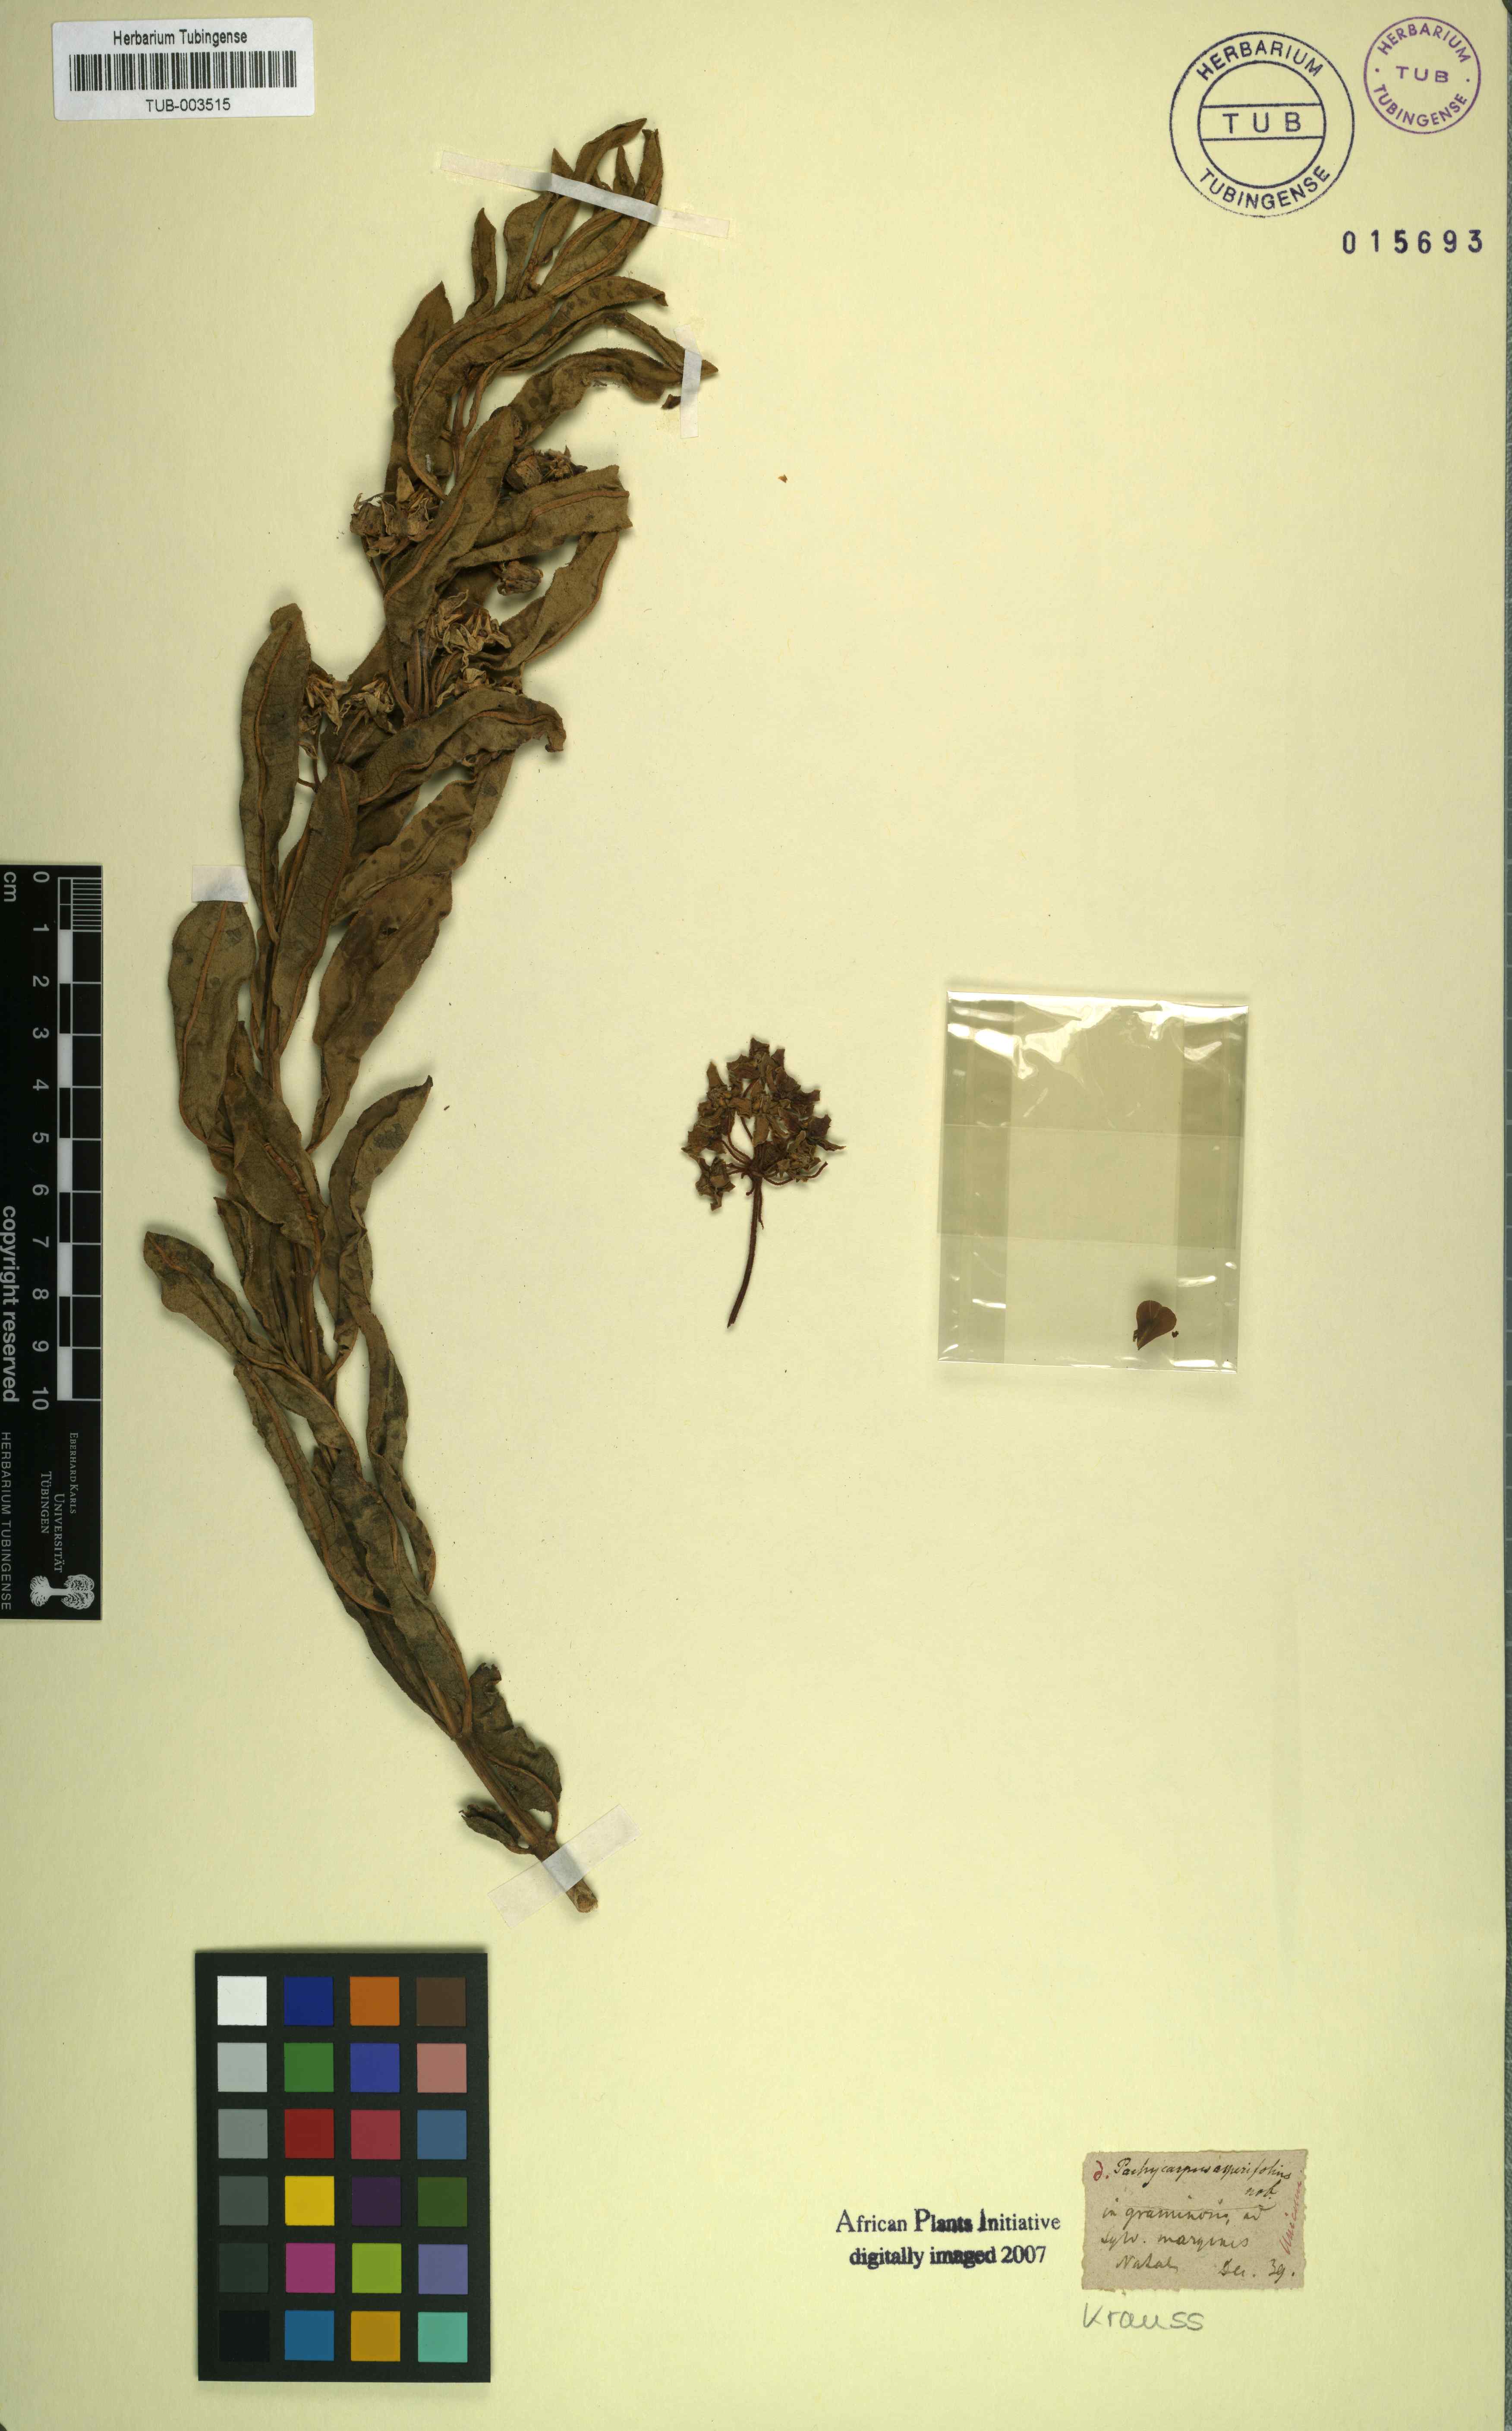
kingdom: Plantae
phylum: Tracheophyta
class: Magnoliopsida
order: Gentianales
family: Apocynaceae
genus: Gomphocarpus
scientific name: Gomphocarpus asperifolius
